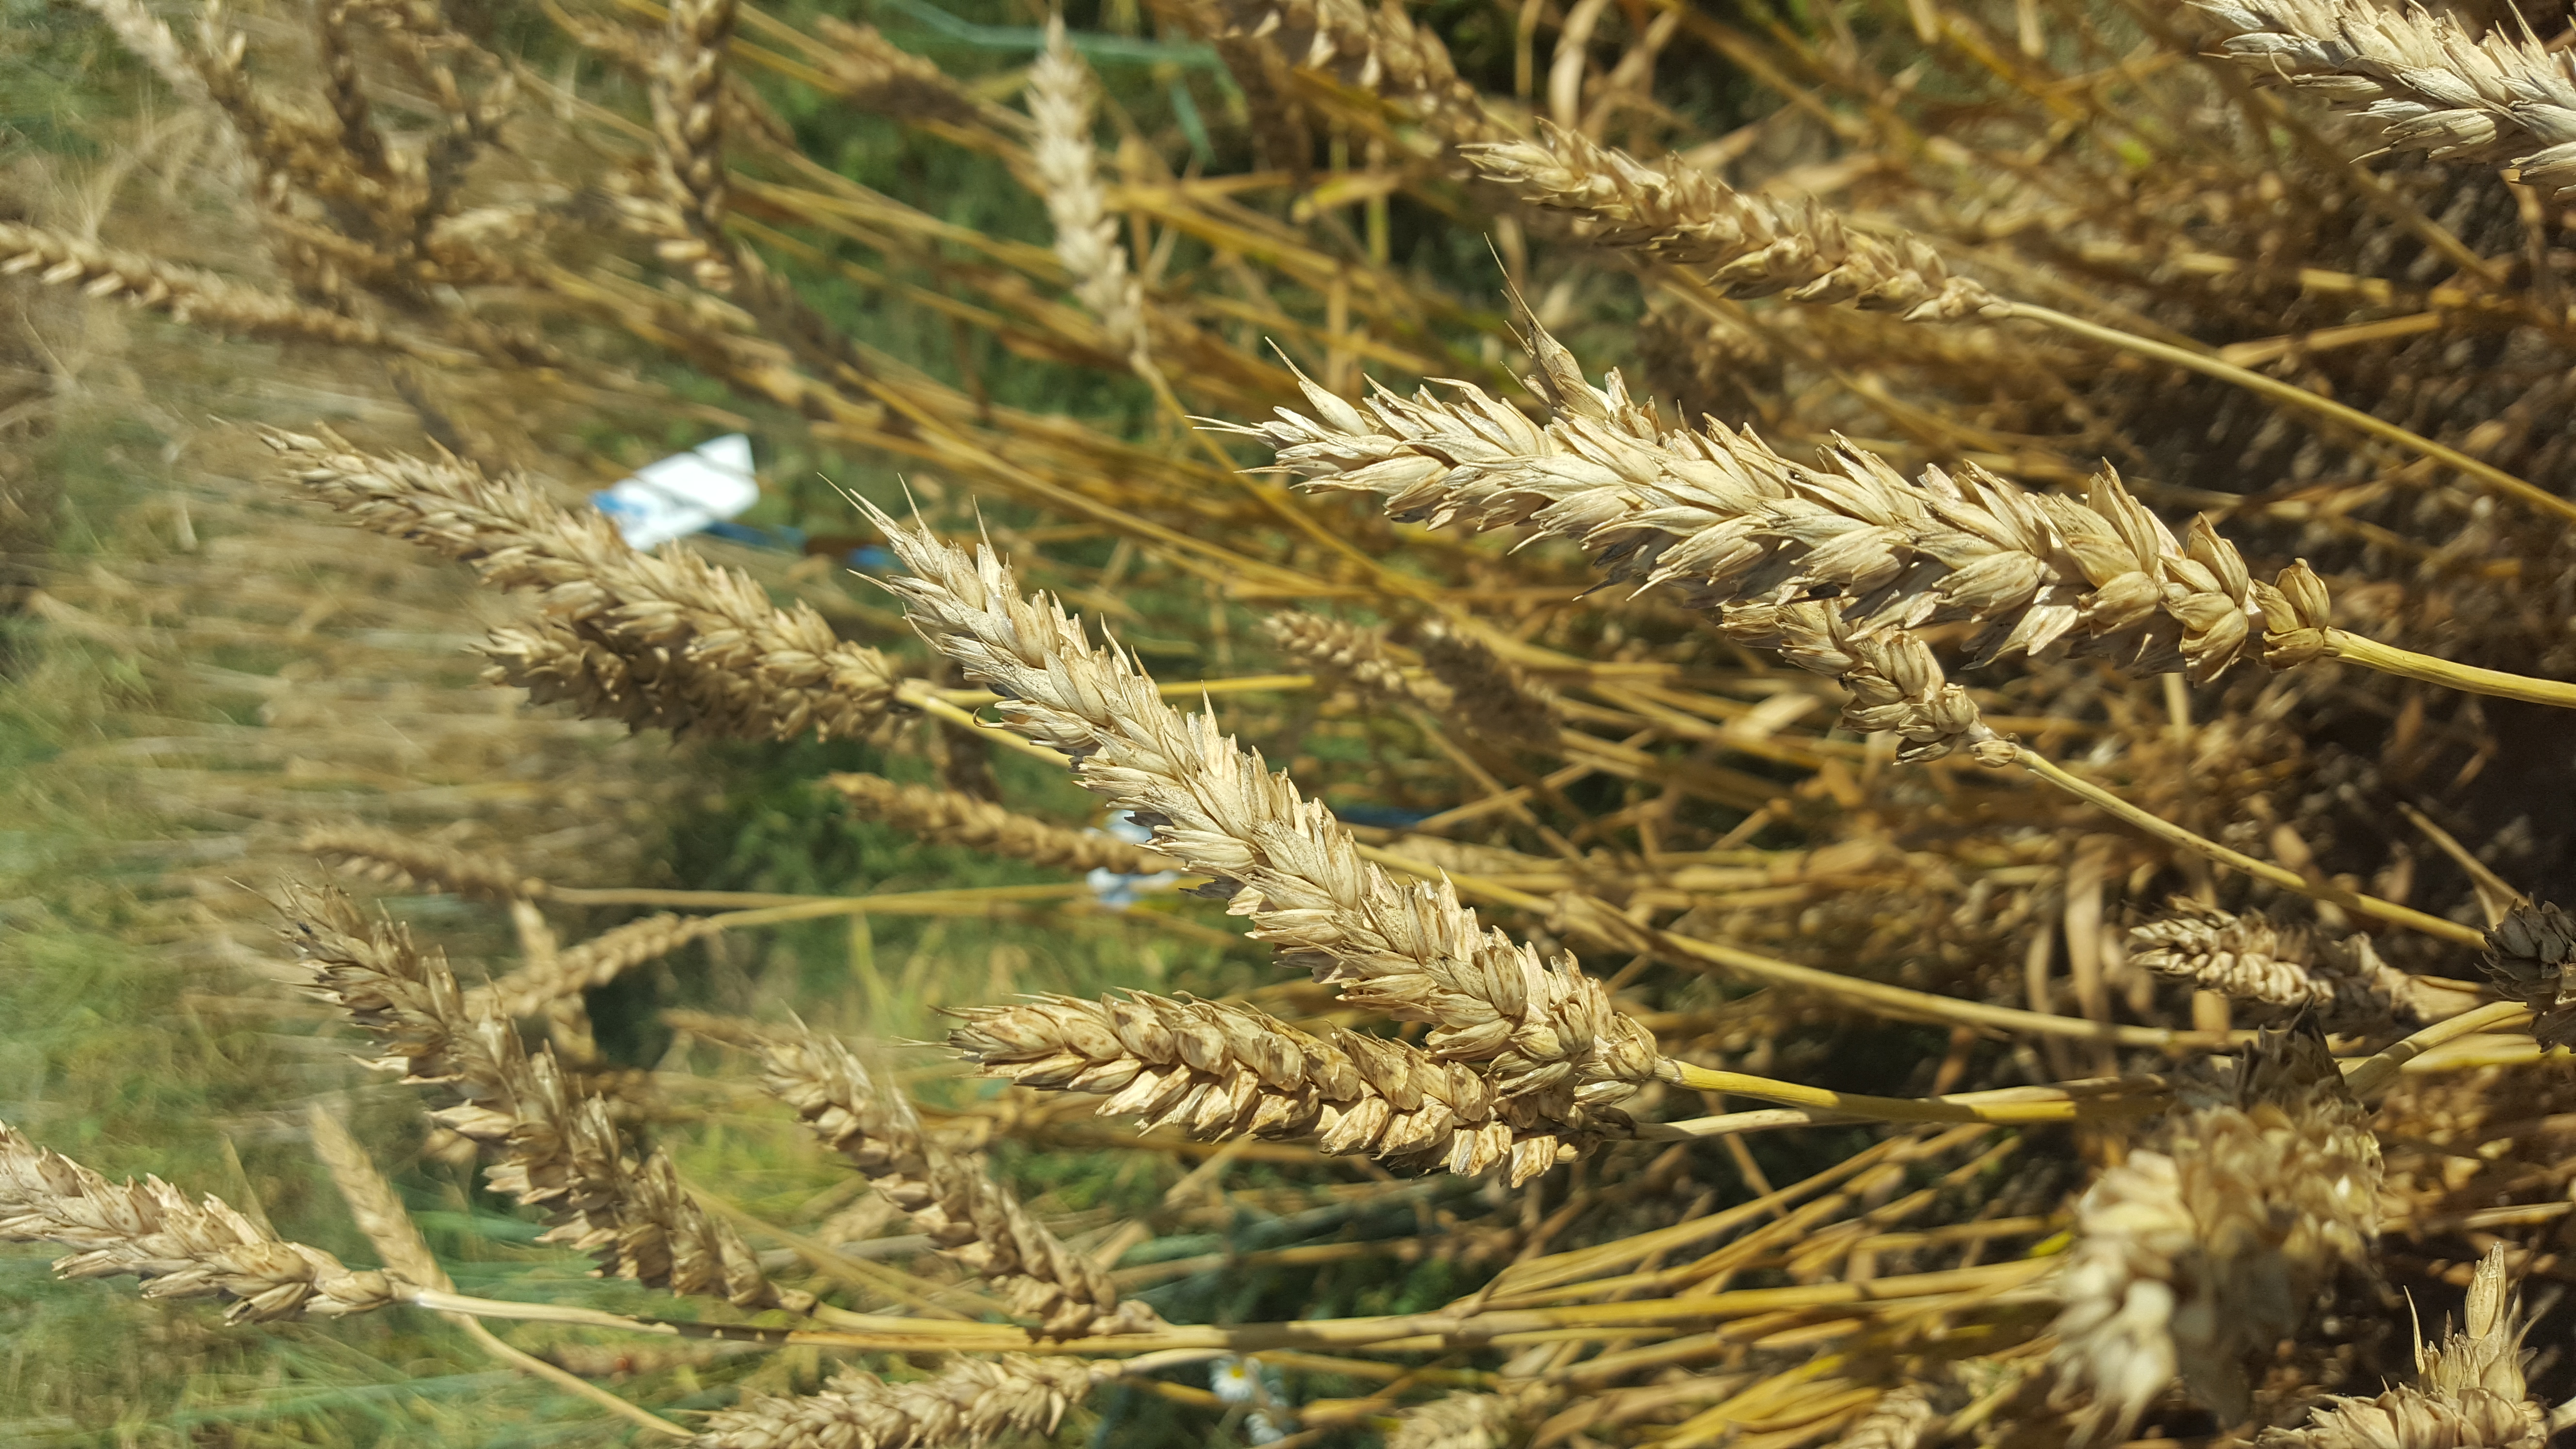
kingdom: Plantae
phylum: Tracheophyta
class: Liliopsida
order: Poales
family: Poaceae
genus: Triticum
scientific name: Triticum aestivum
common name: Common wheat
